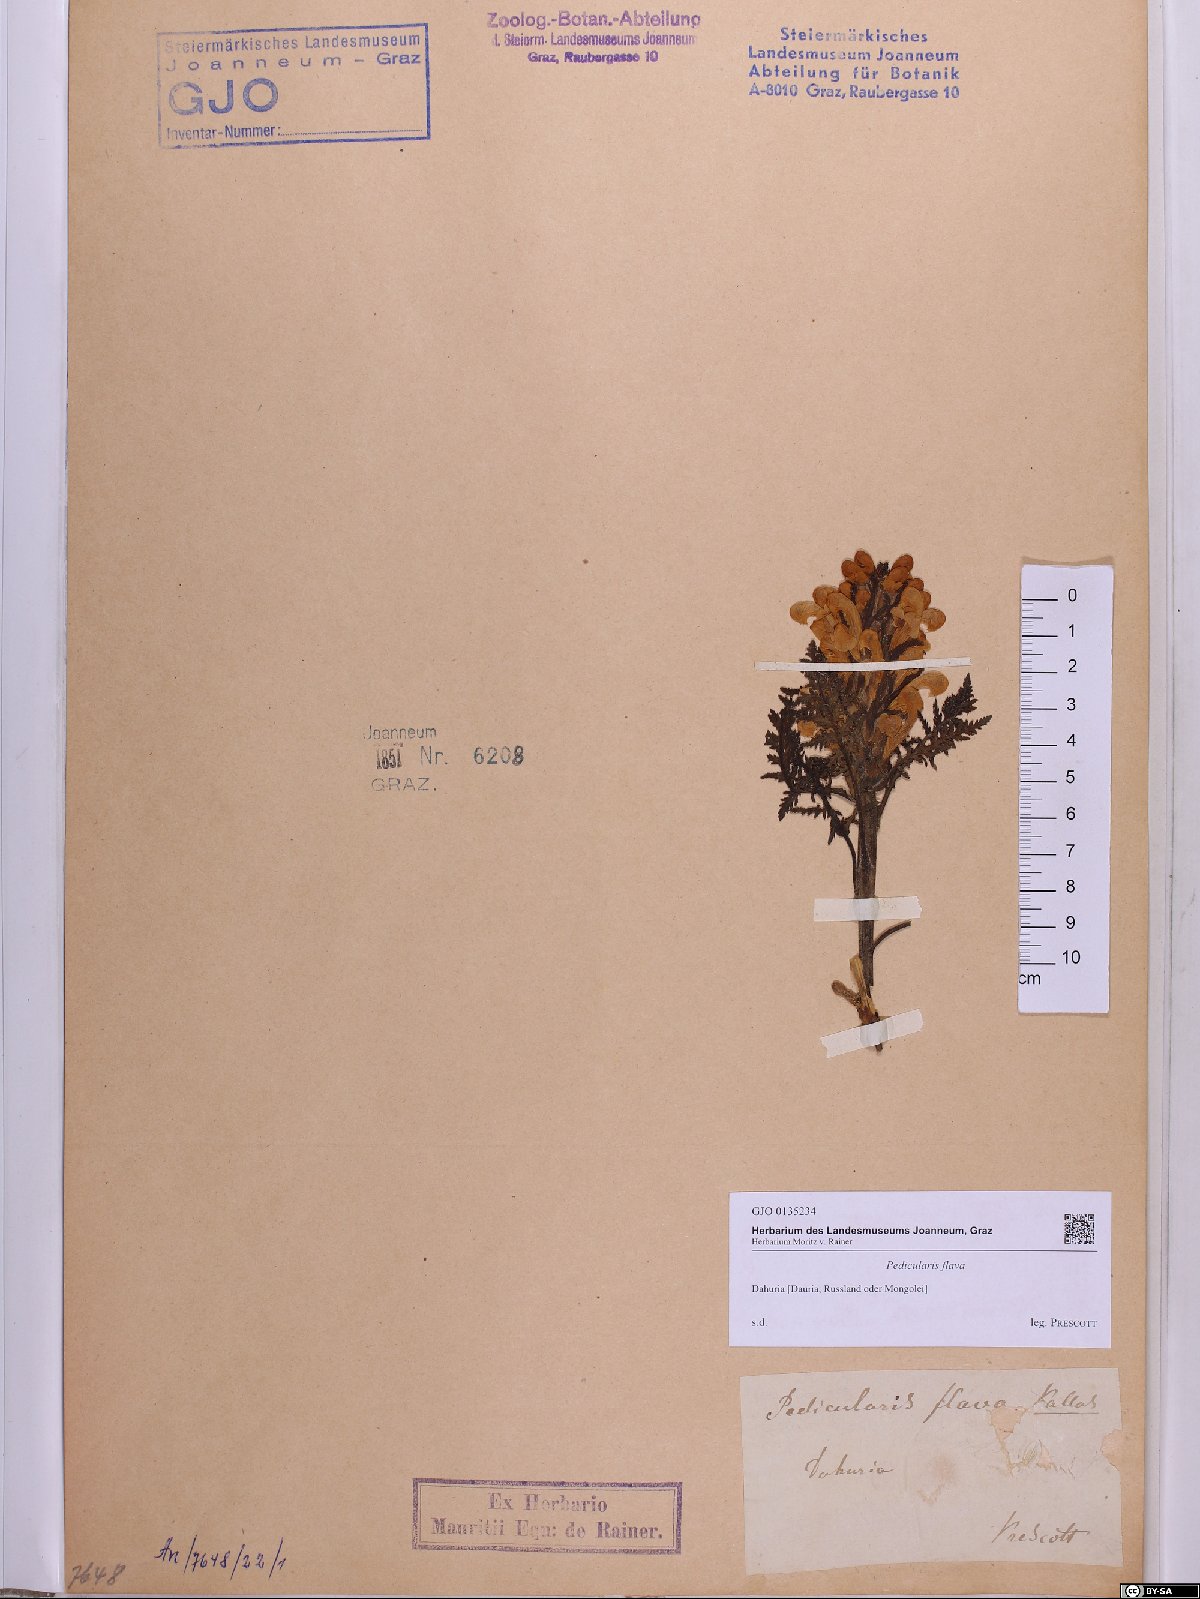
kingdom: Plantae
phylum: Tracheophyta
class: Magnoliopsida
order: Lamiales
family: Orobanchaceae
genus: Pedicularis
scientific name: Pedicularis flava
